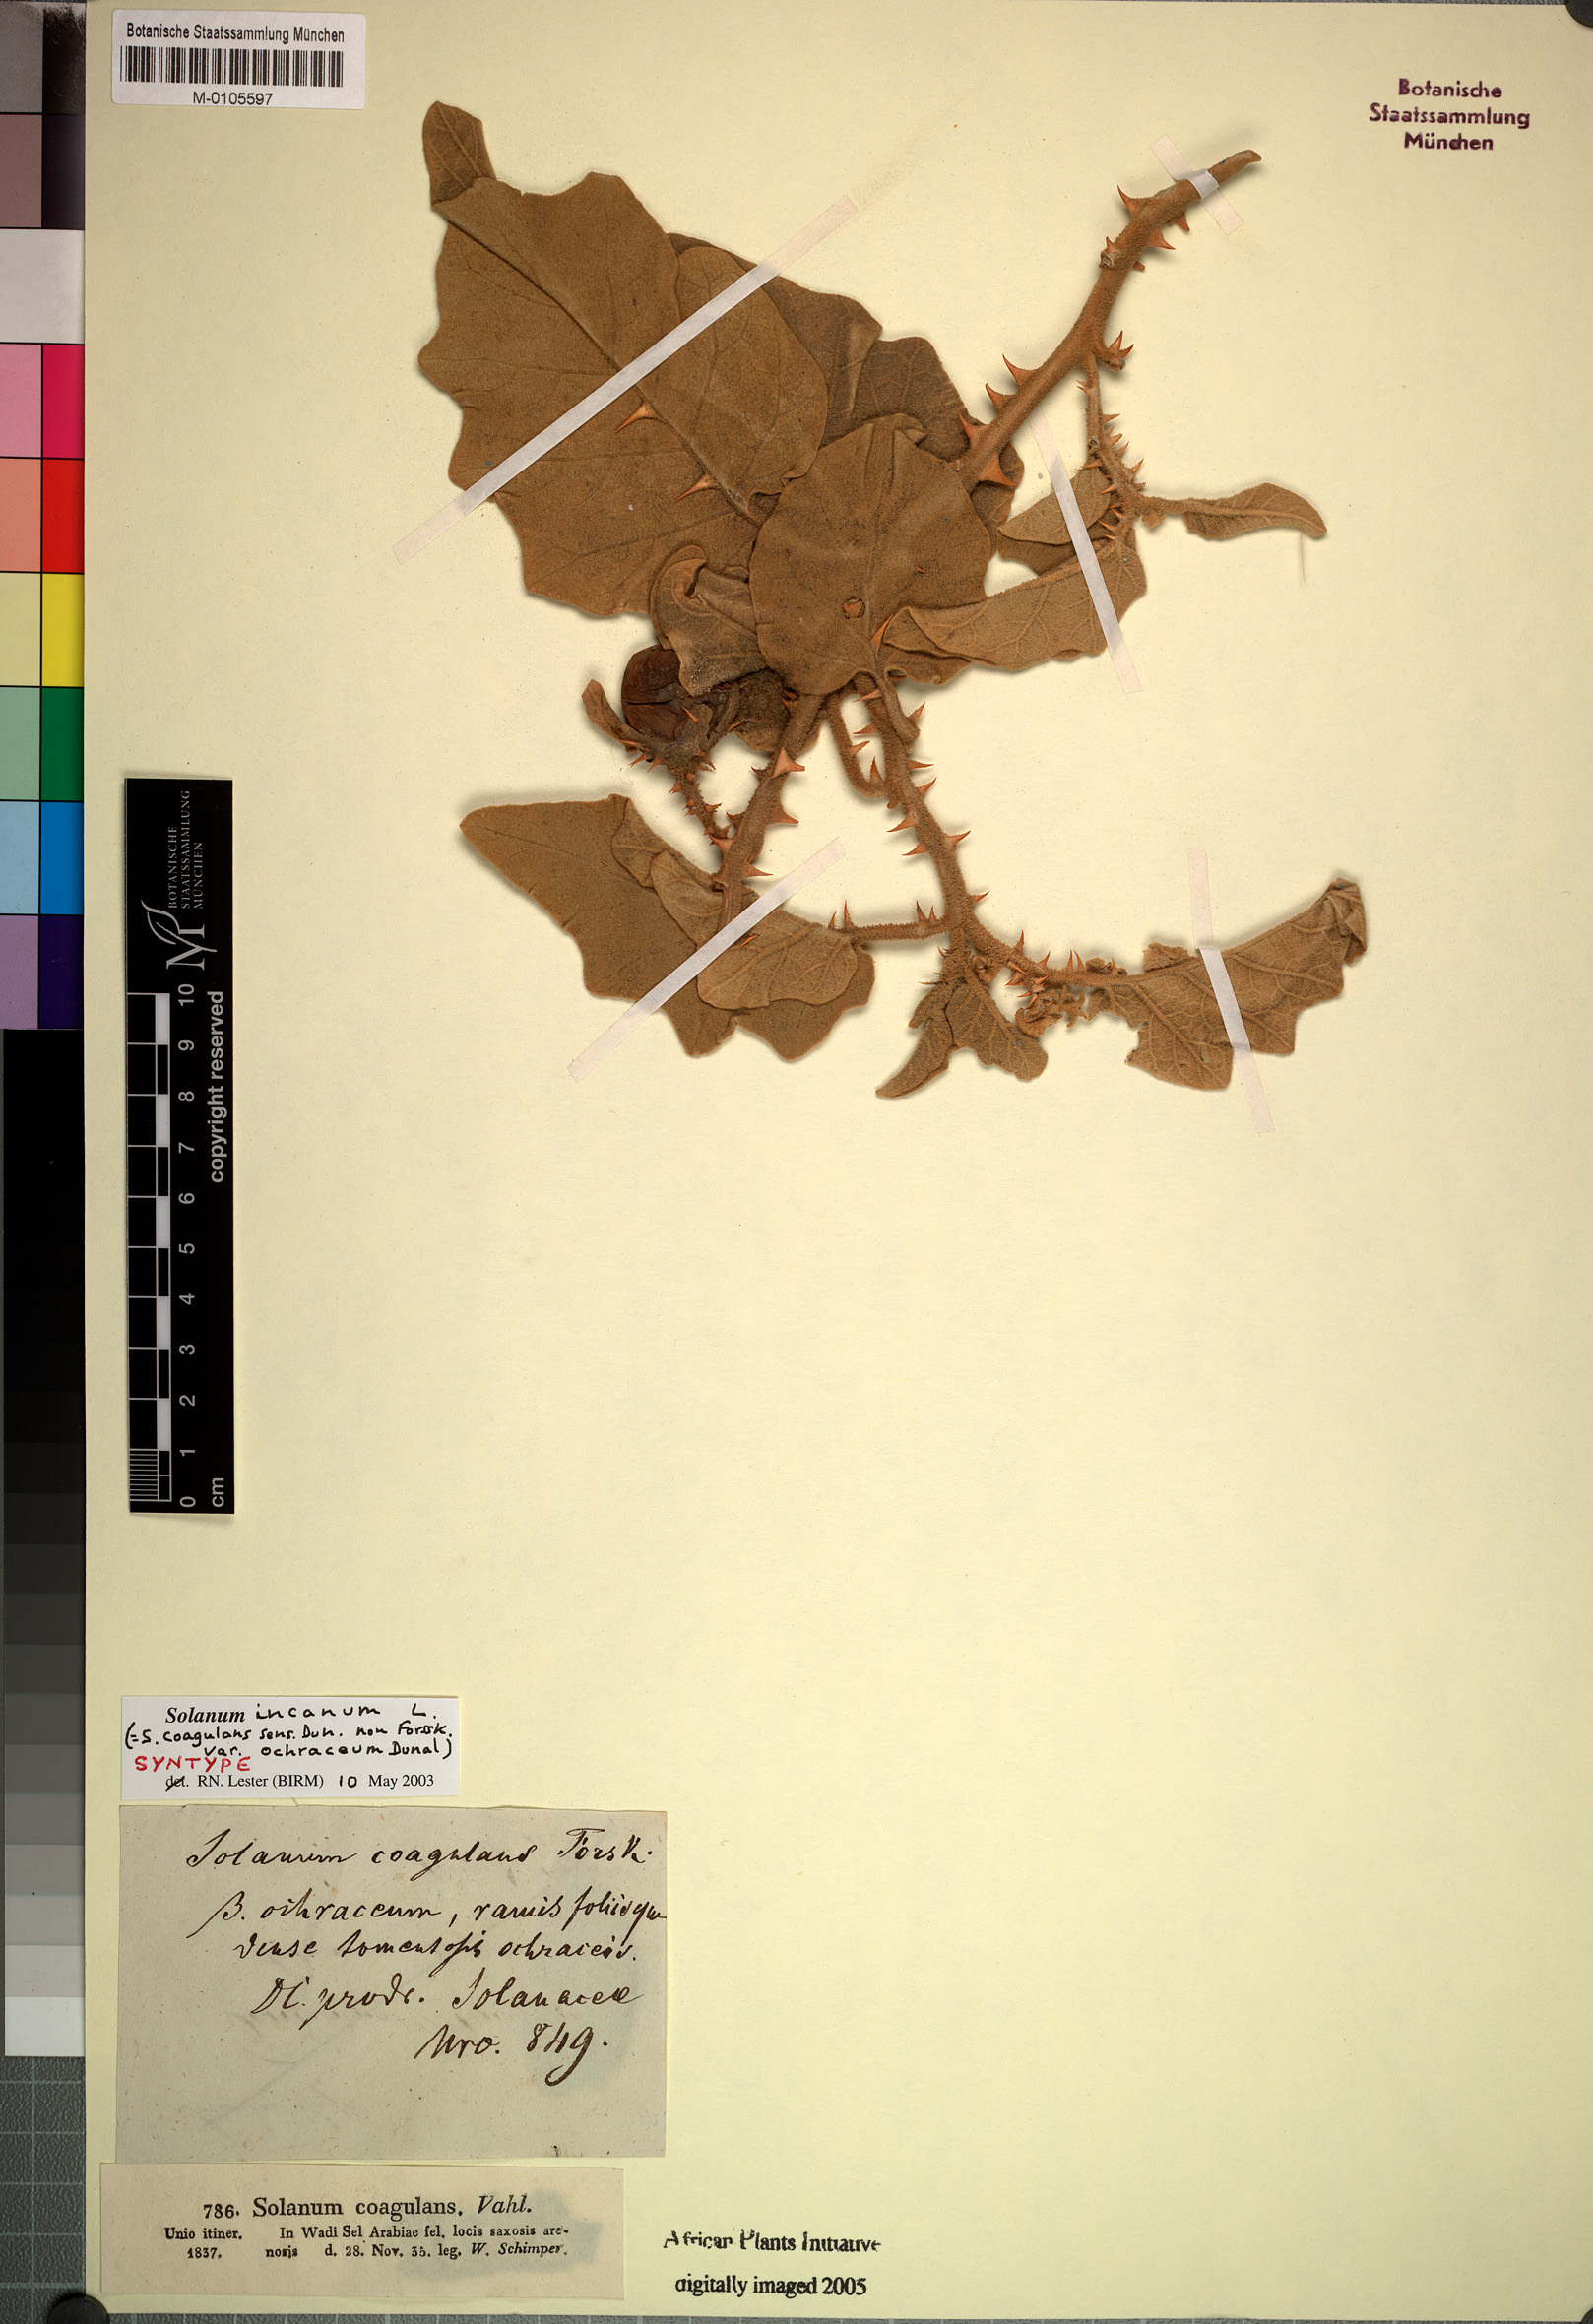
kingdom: Plantae
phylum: Tracheophyta
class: Magnoliopsida
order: Solanales
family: Solanaceae
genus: Solanum
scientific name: Solanum incanum
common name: Bitter apple
